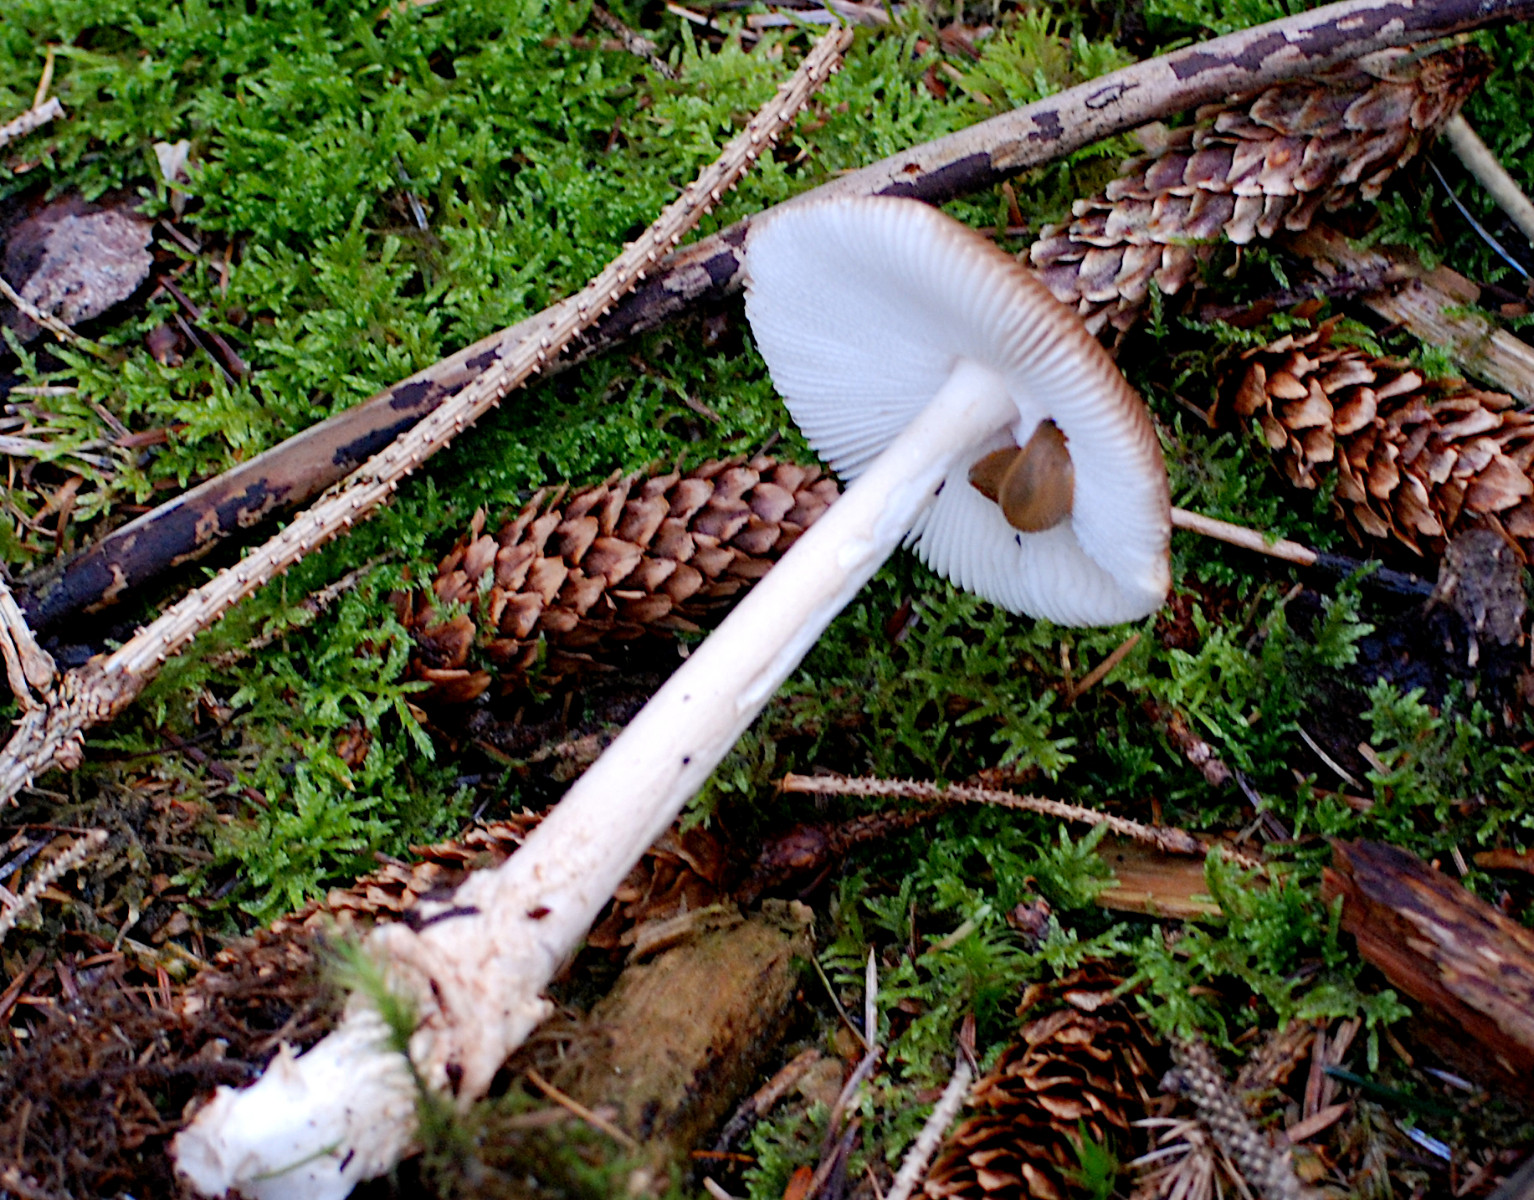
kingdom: Fungi
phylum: Basidiomycota
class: Agaricomycetes
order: Agaricales
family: Amanitaceae
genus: Amanita
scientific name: Amanita fulva
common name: brun kam-fluesvamp
